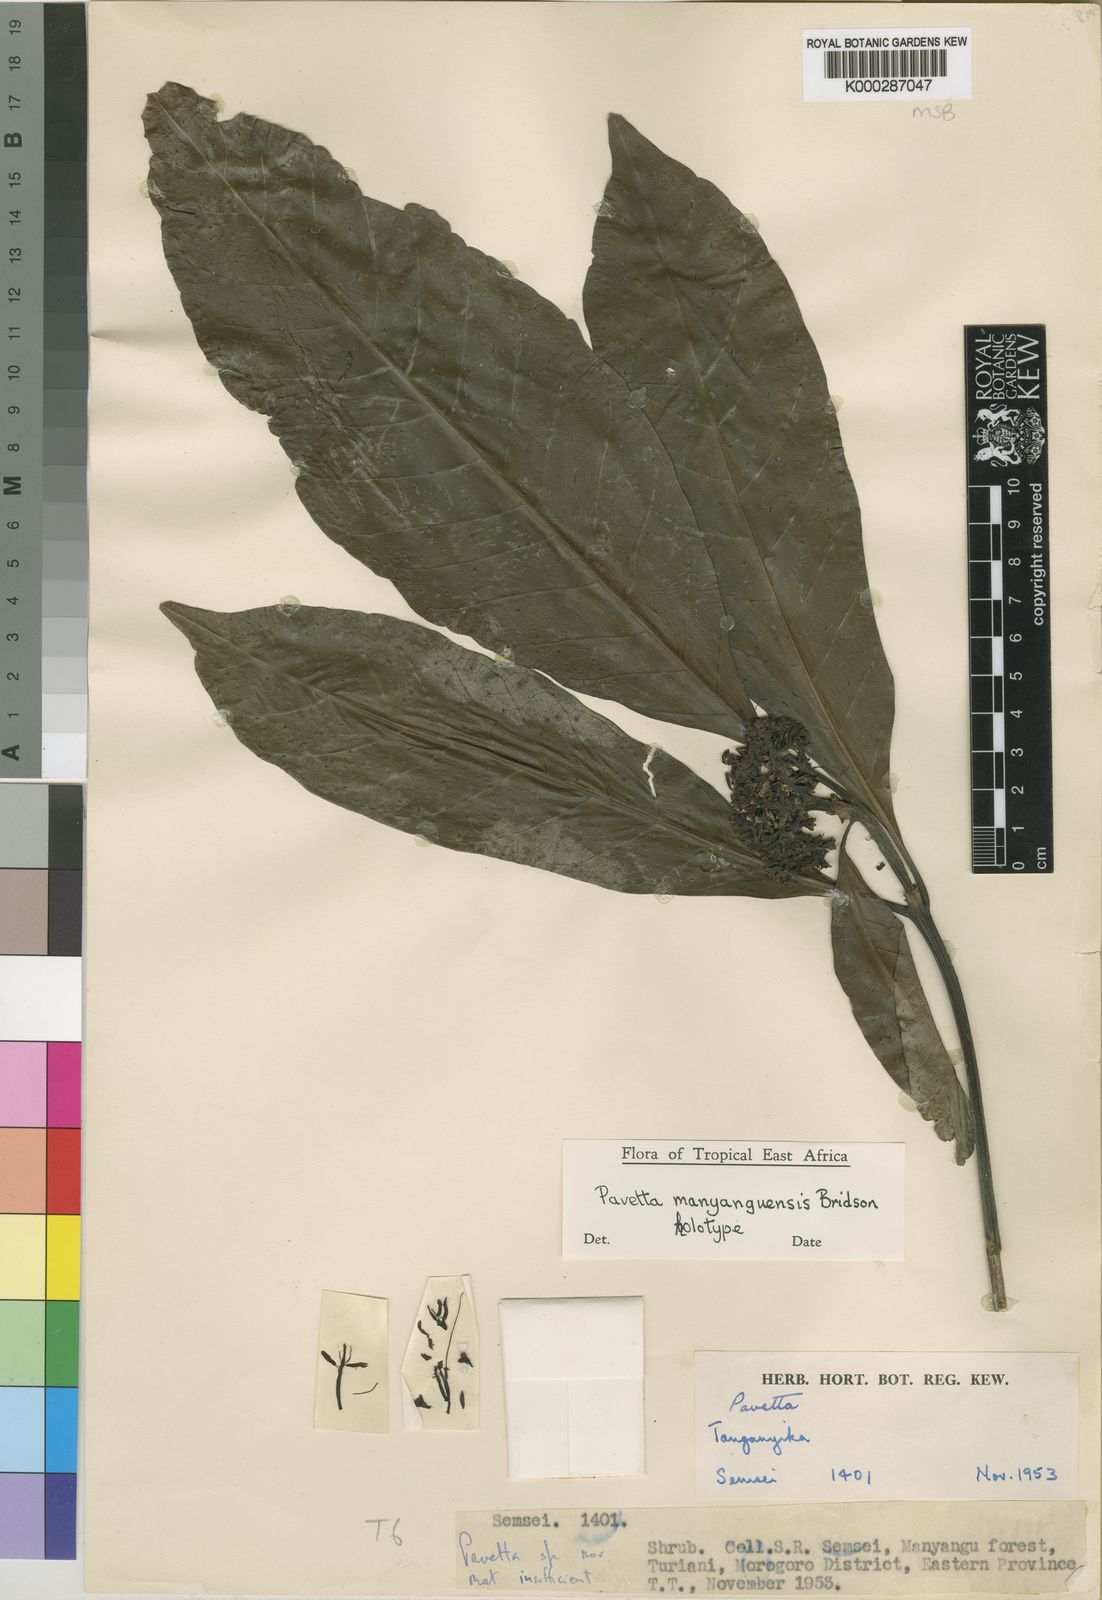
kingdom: Plantae
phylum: Tracheophyta
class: Magnoliopsida
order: Gentianales
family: Rubiaceae
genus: Pavetta
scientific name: Pavetta manyanguensis
